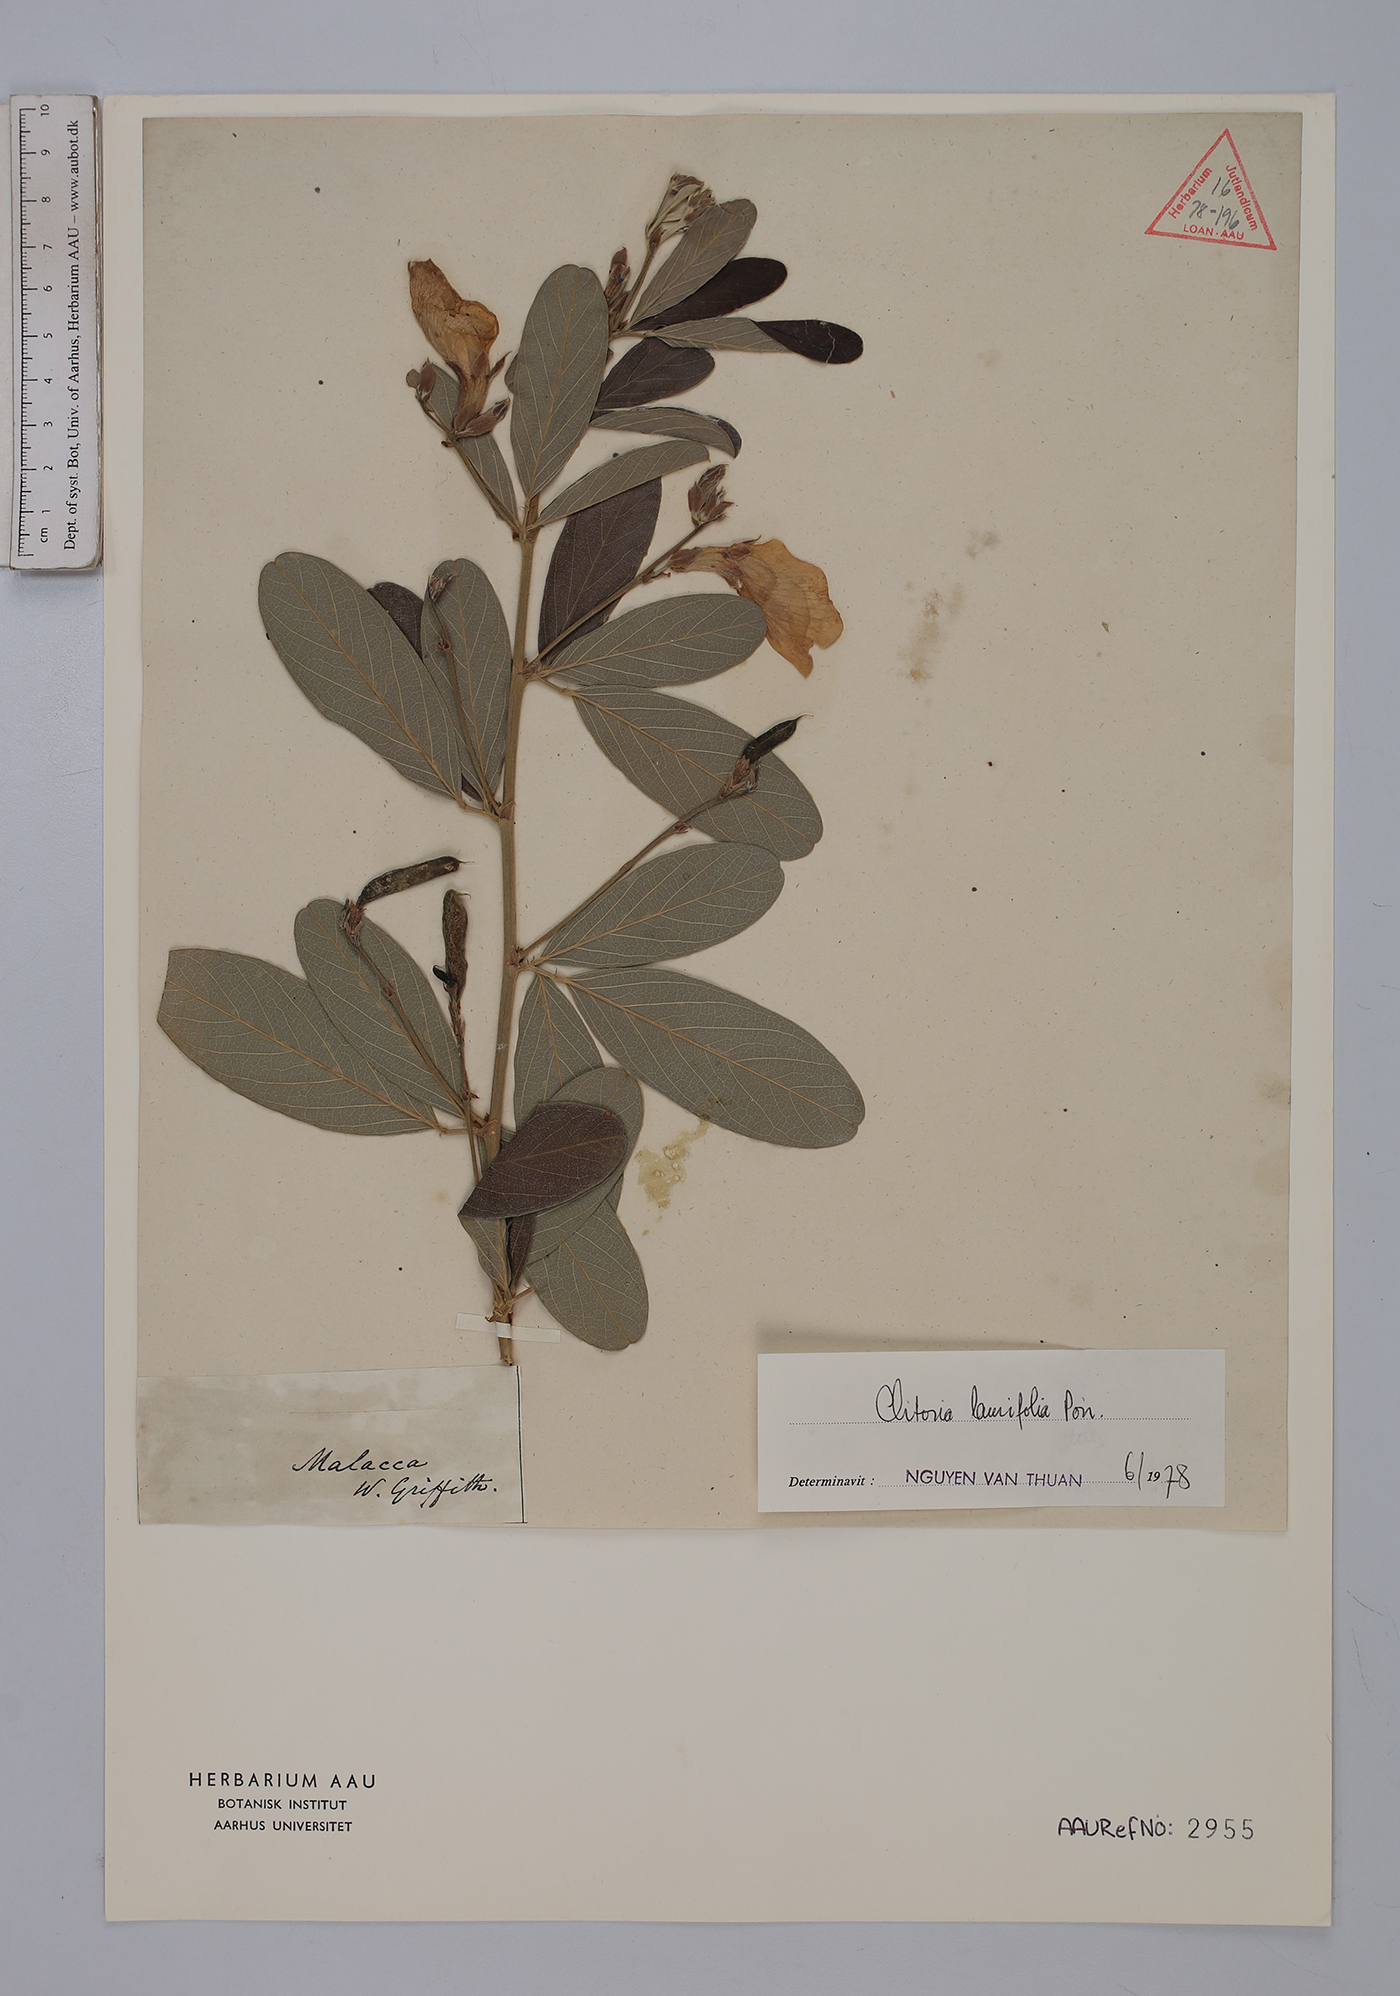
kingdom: Plantae
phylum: Tracheophyta
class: Magnoliopsida
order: Fabales
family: Fabaceae
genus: Clitoria
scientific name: Clitoria laurifolia
